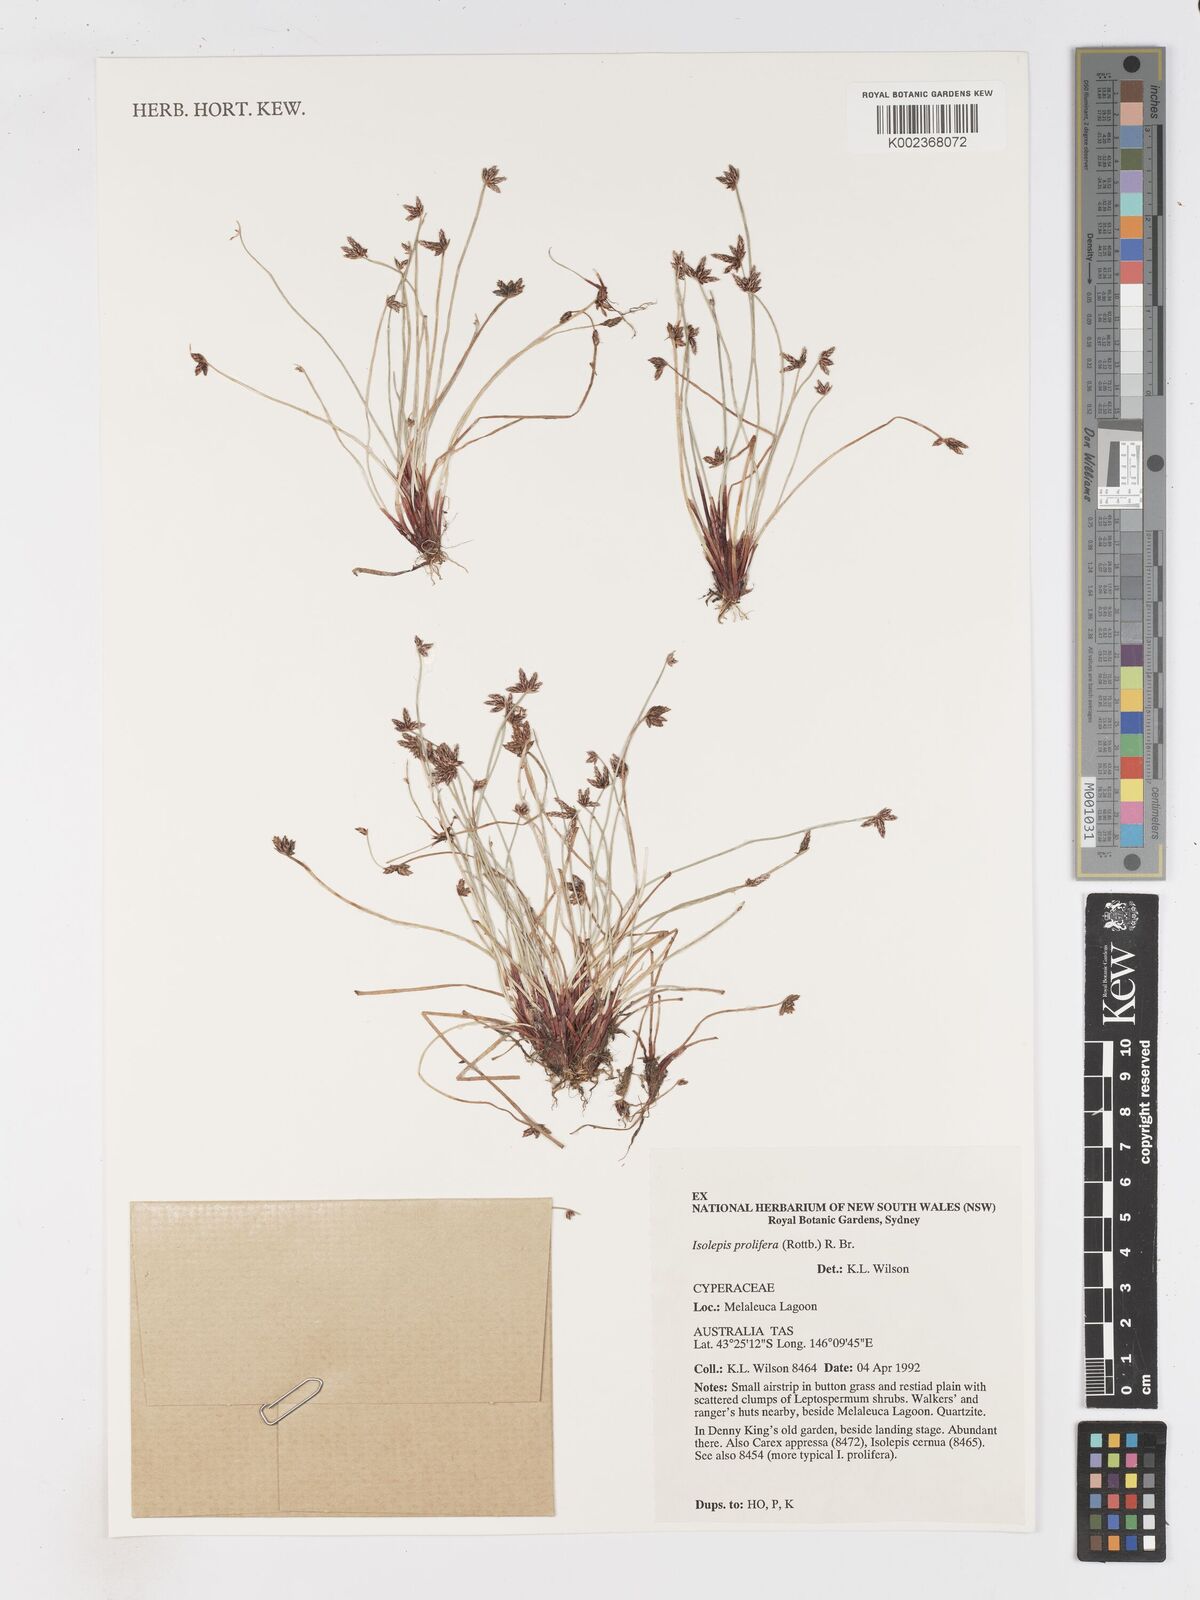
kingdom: Plantae
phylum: Tracheophyta
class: Liliopsida
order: Poales
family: Cyperaceae
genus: Isolepis
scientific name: Isolepis prolifera
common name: Proliferating bulrush
